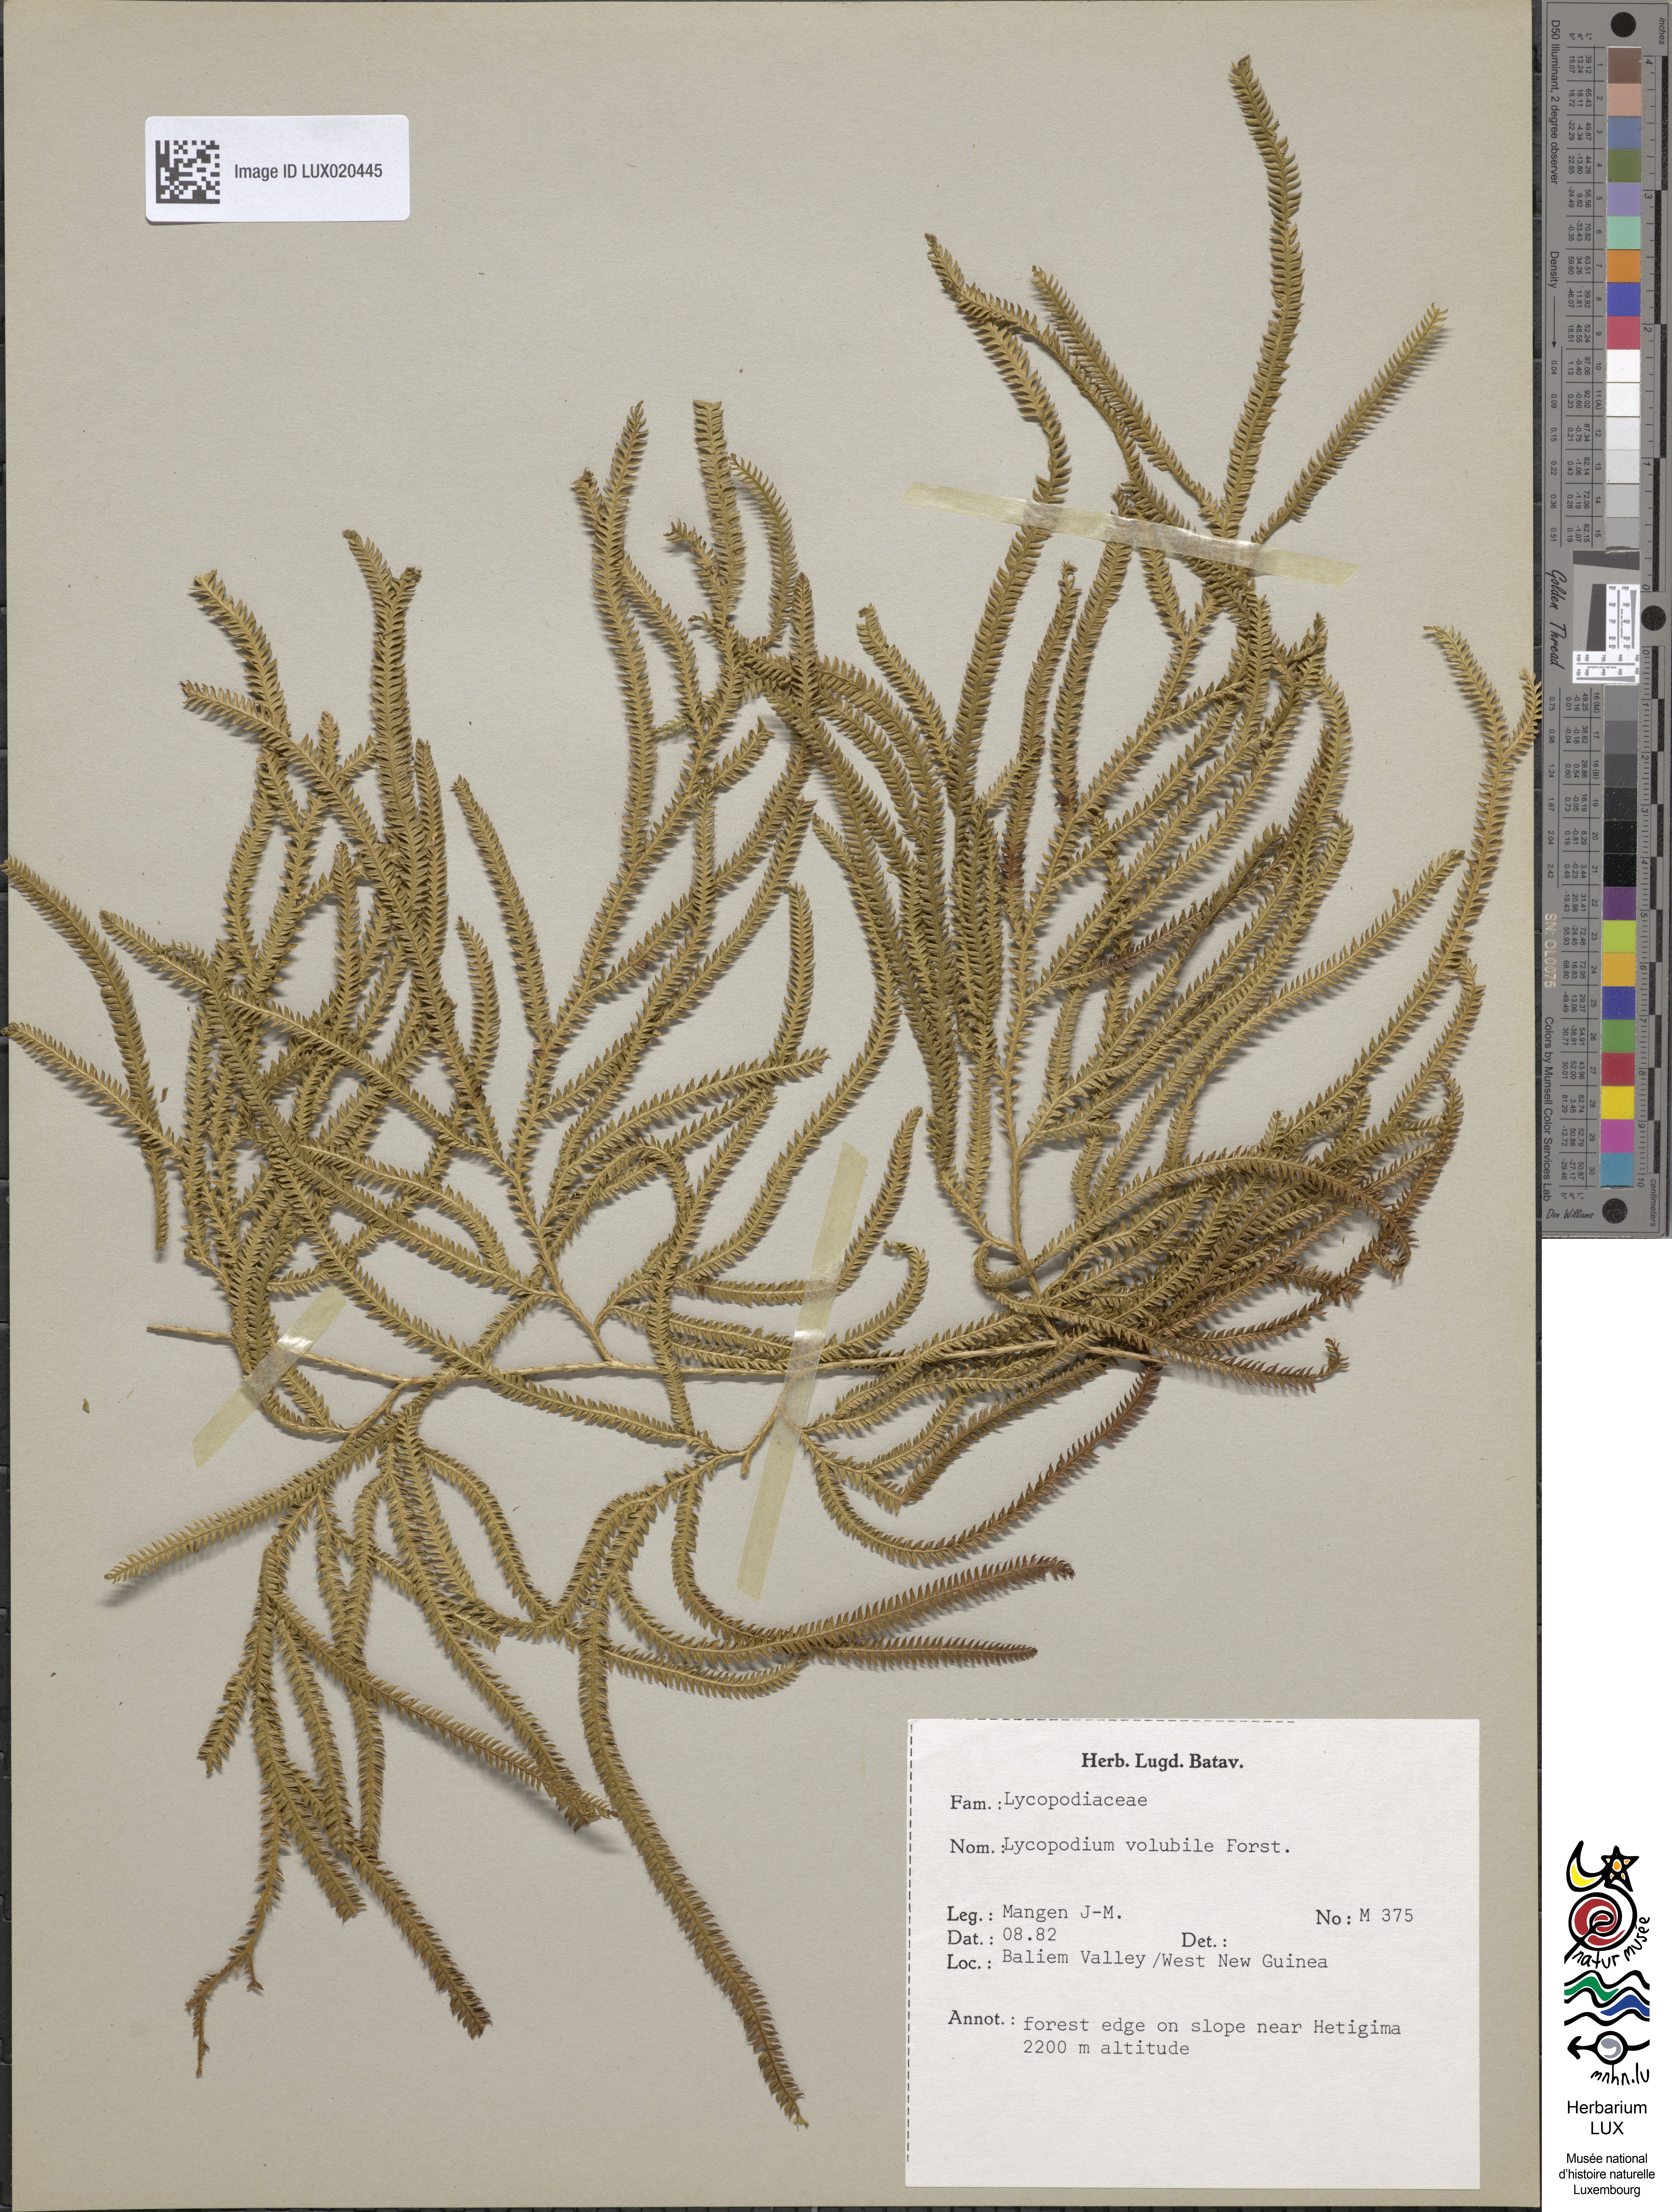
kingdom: Plantae
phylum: Tracheophyta
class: Lycopodiopsida
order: Lycopodiales
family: Lycopodiaceae
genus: Pseudodiphasium
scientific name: Pseudodiphasium volubile
